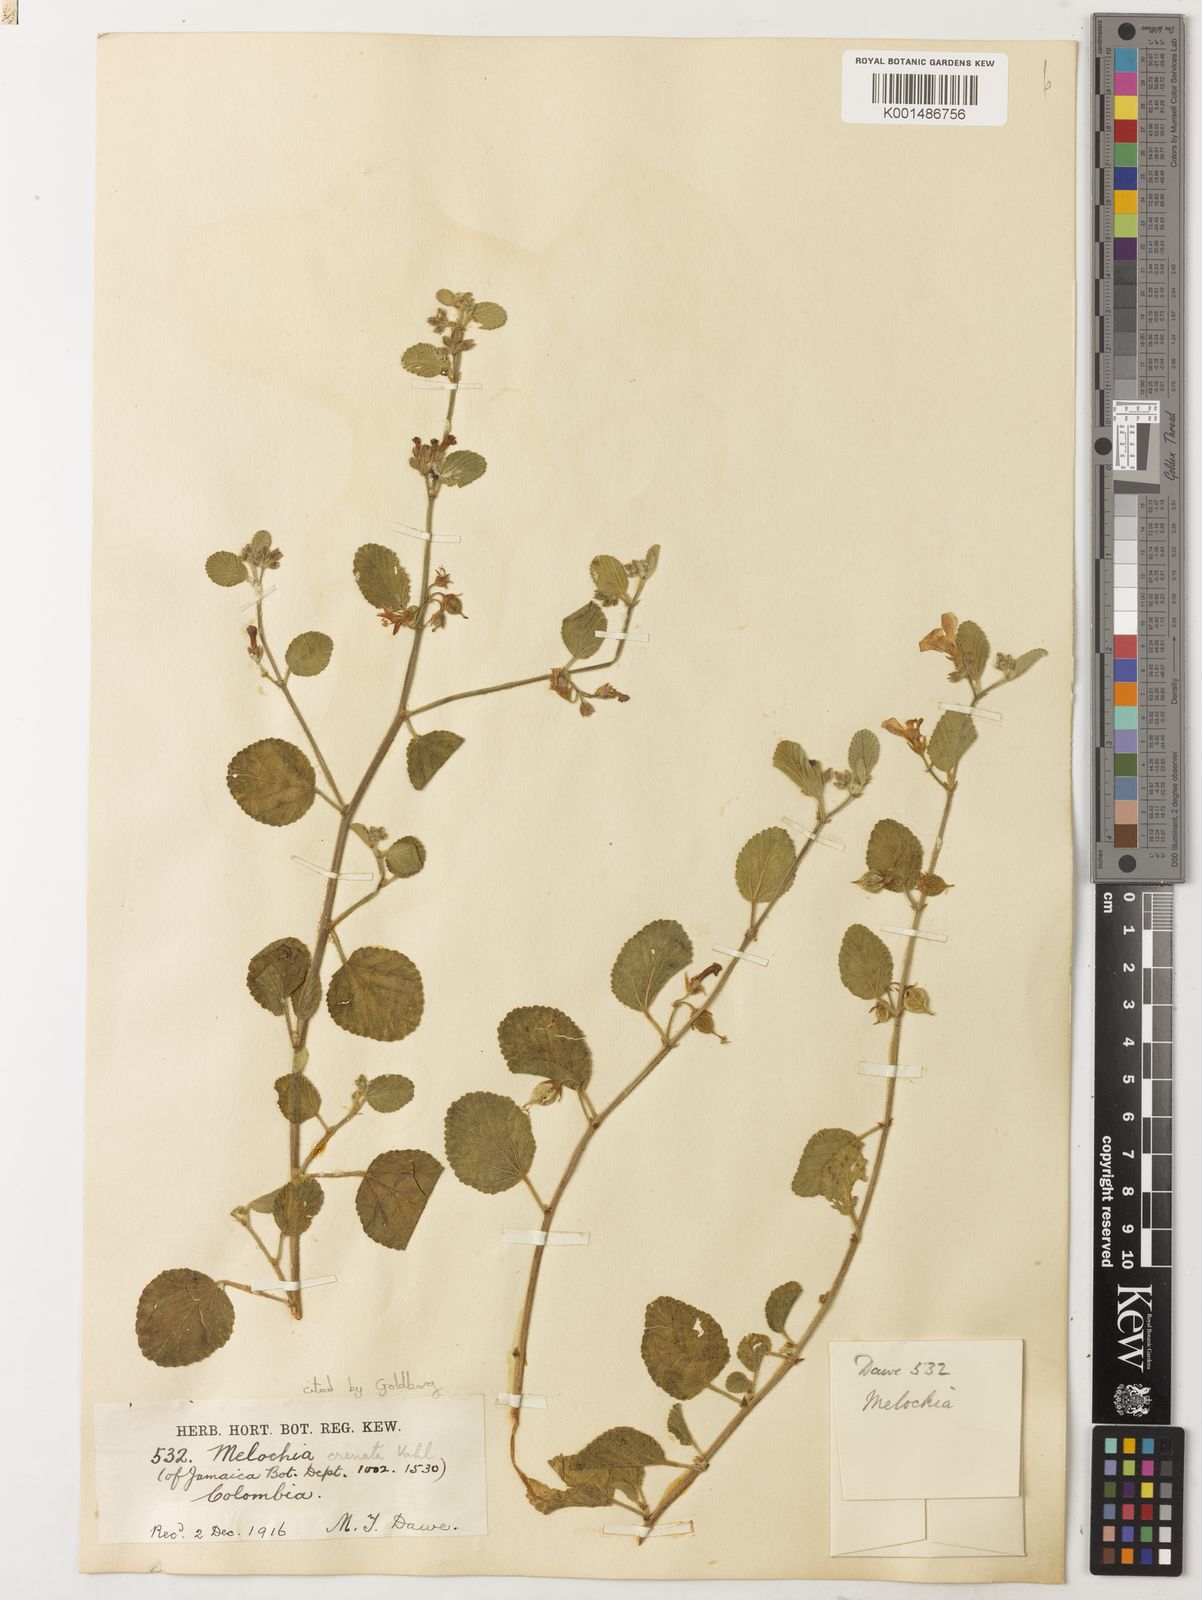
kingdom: Plantae
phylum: Tracheophyta
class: Magnoliopsida
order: Malvales
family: Malvaceae
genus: Melochia
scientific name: Melochia crenata
